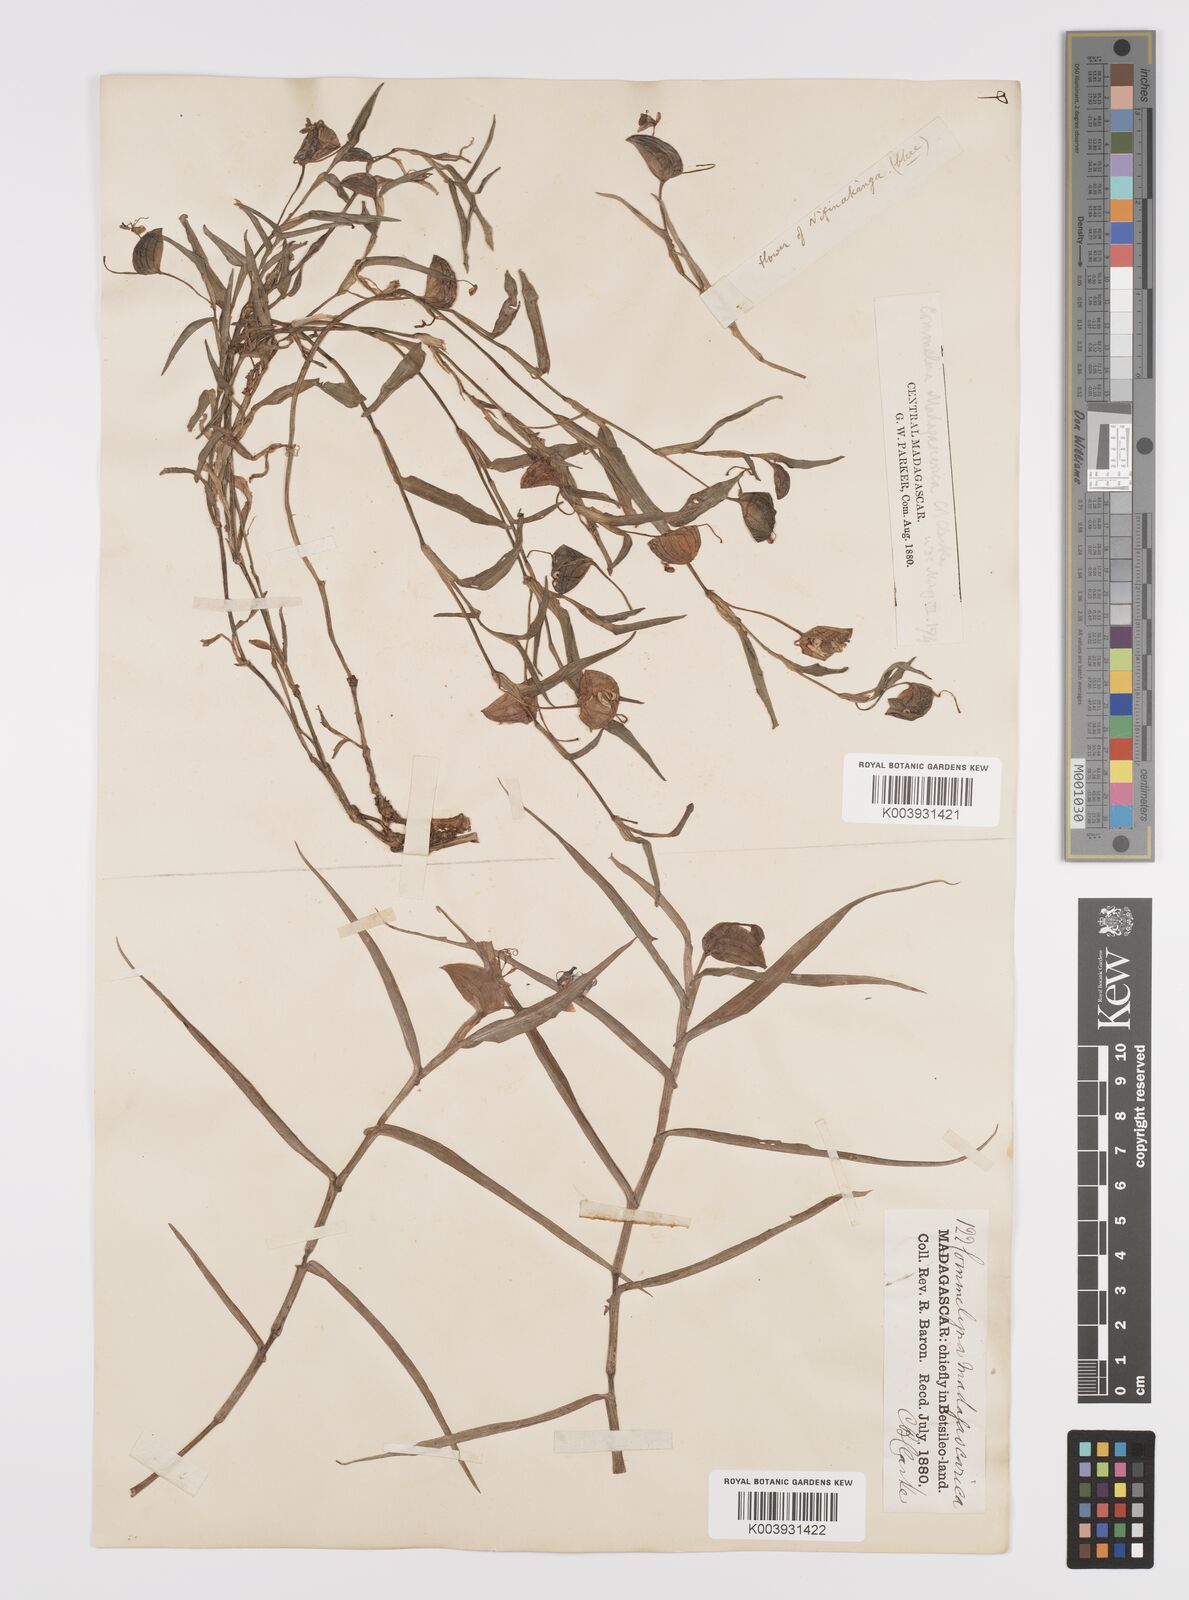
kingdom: Plantae
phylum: Tracheophyta
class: Liliopsida
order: Commelinales
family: Commelinaceae
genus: Commelina
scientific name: Commelina madagascarica
